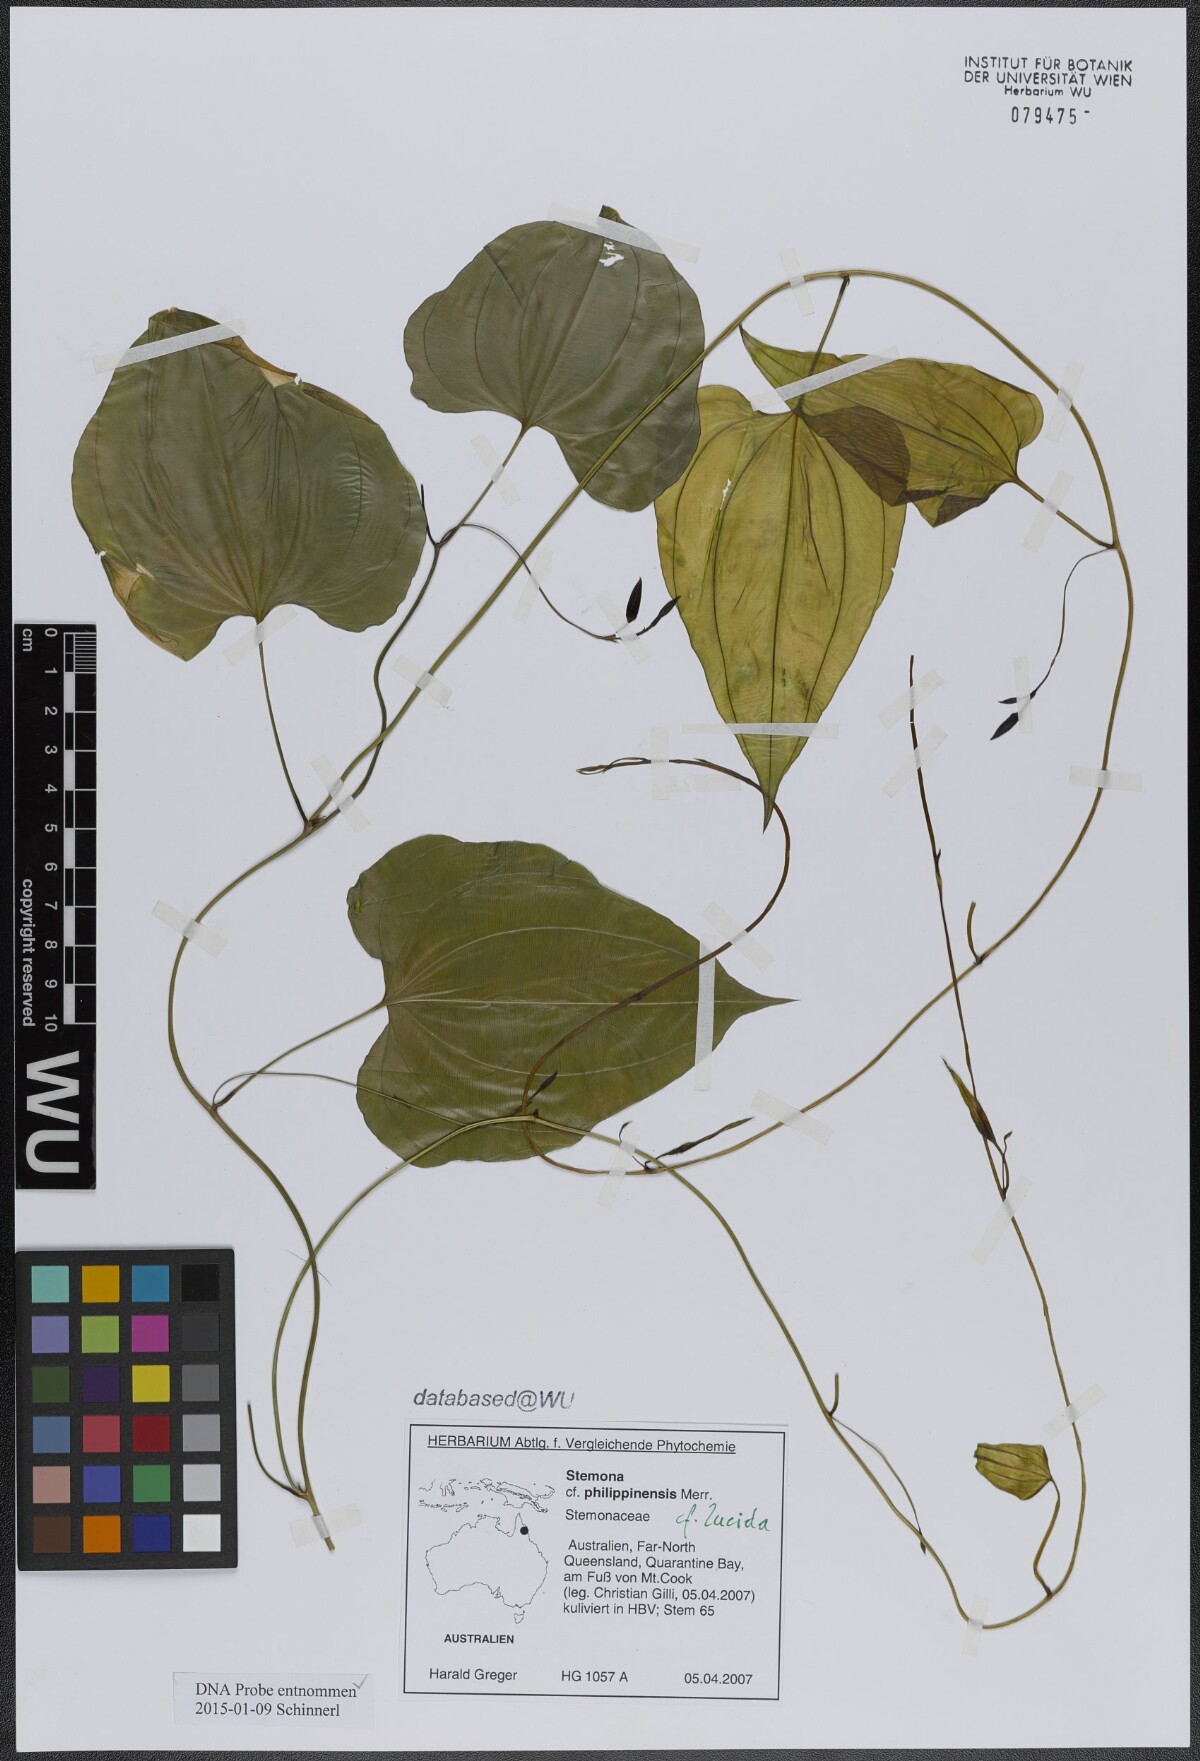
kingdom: Plantae
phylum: Tracheophyta
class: Liliopsida
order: Pandanales
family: Stemonaceae
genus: Stemona
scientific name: Stemona lucida
